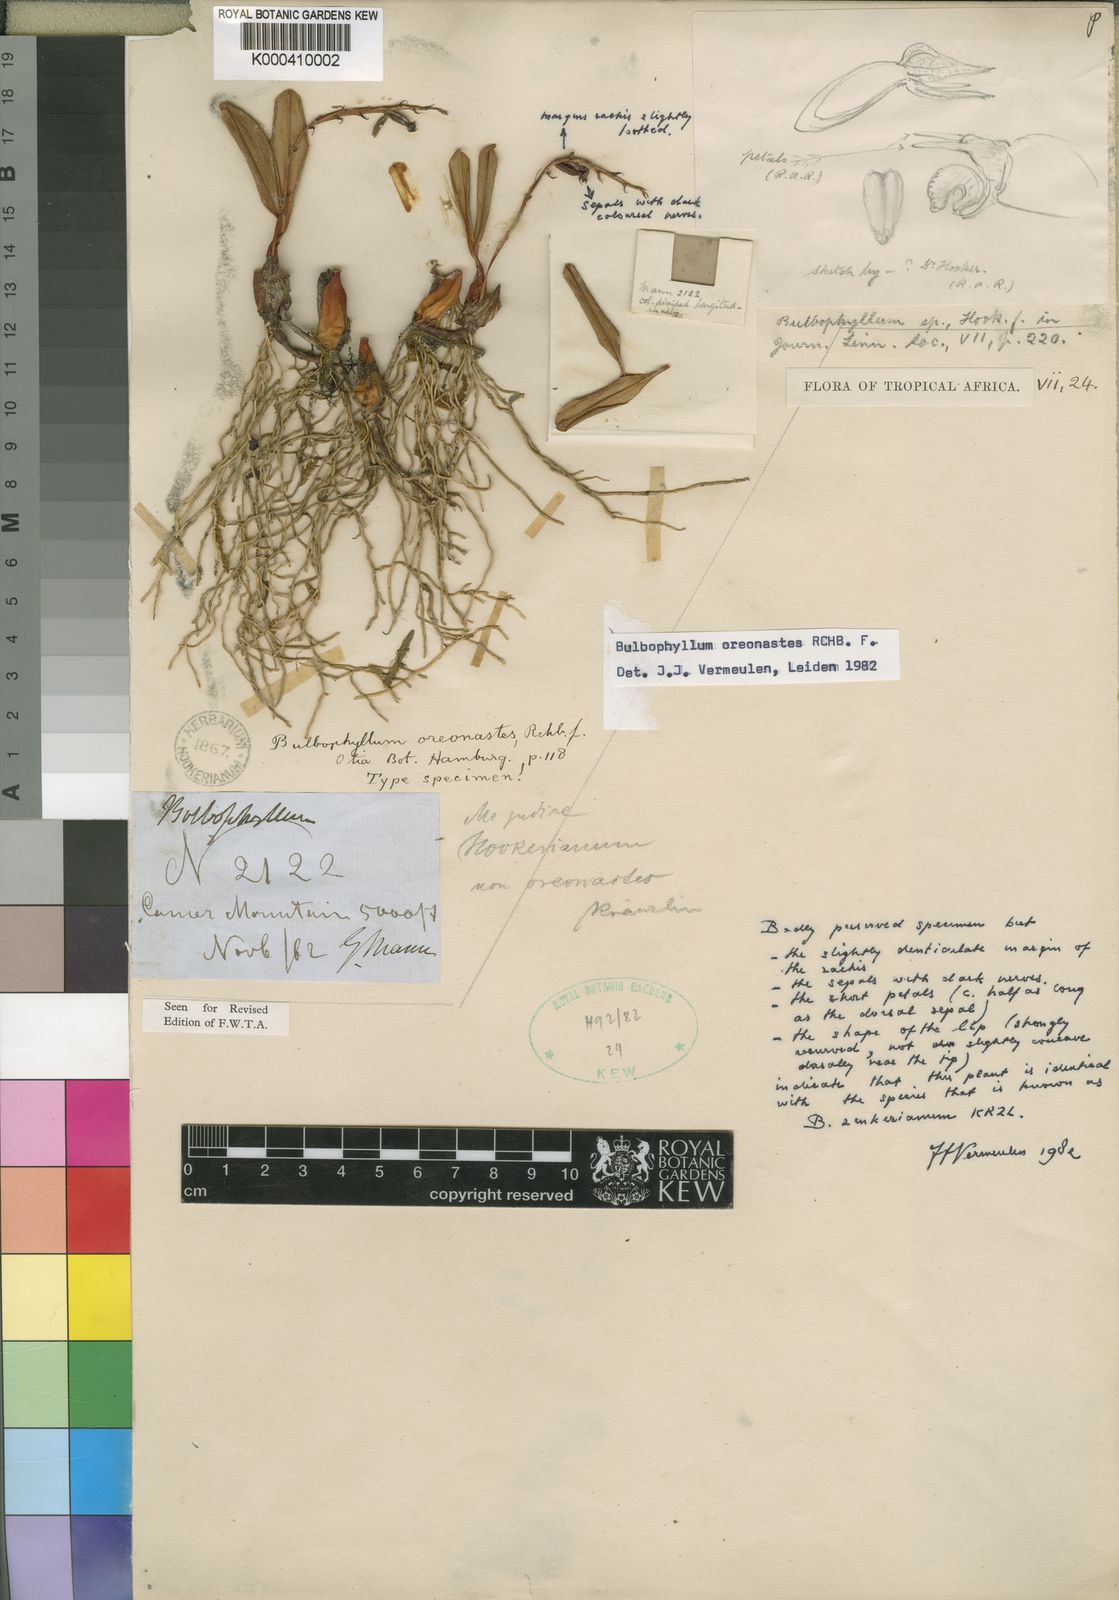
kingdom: Plantae
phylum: Tracheophyta
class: Liliopsida
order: Asparagales
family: Orchidaceae
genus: Bulbophyllum
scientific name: Bulbophyllum oreonastes
